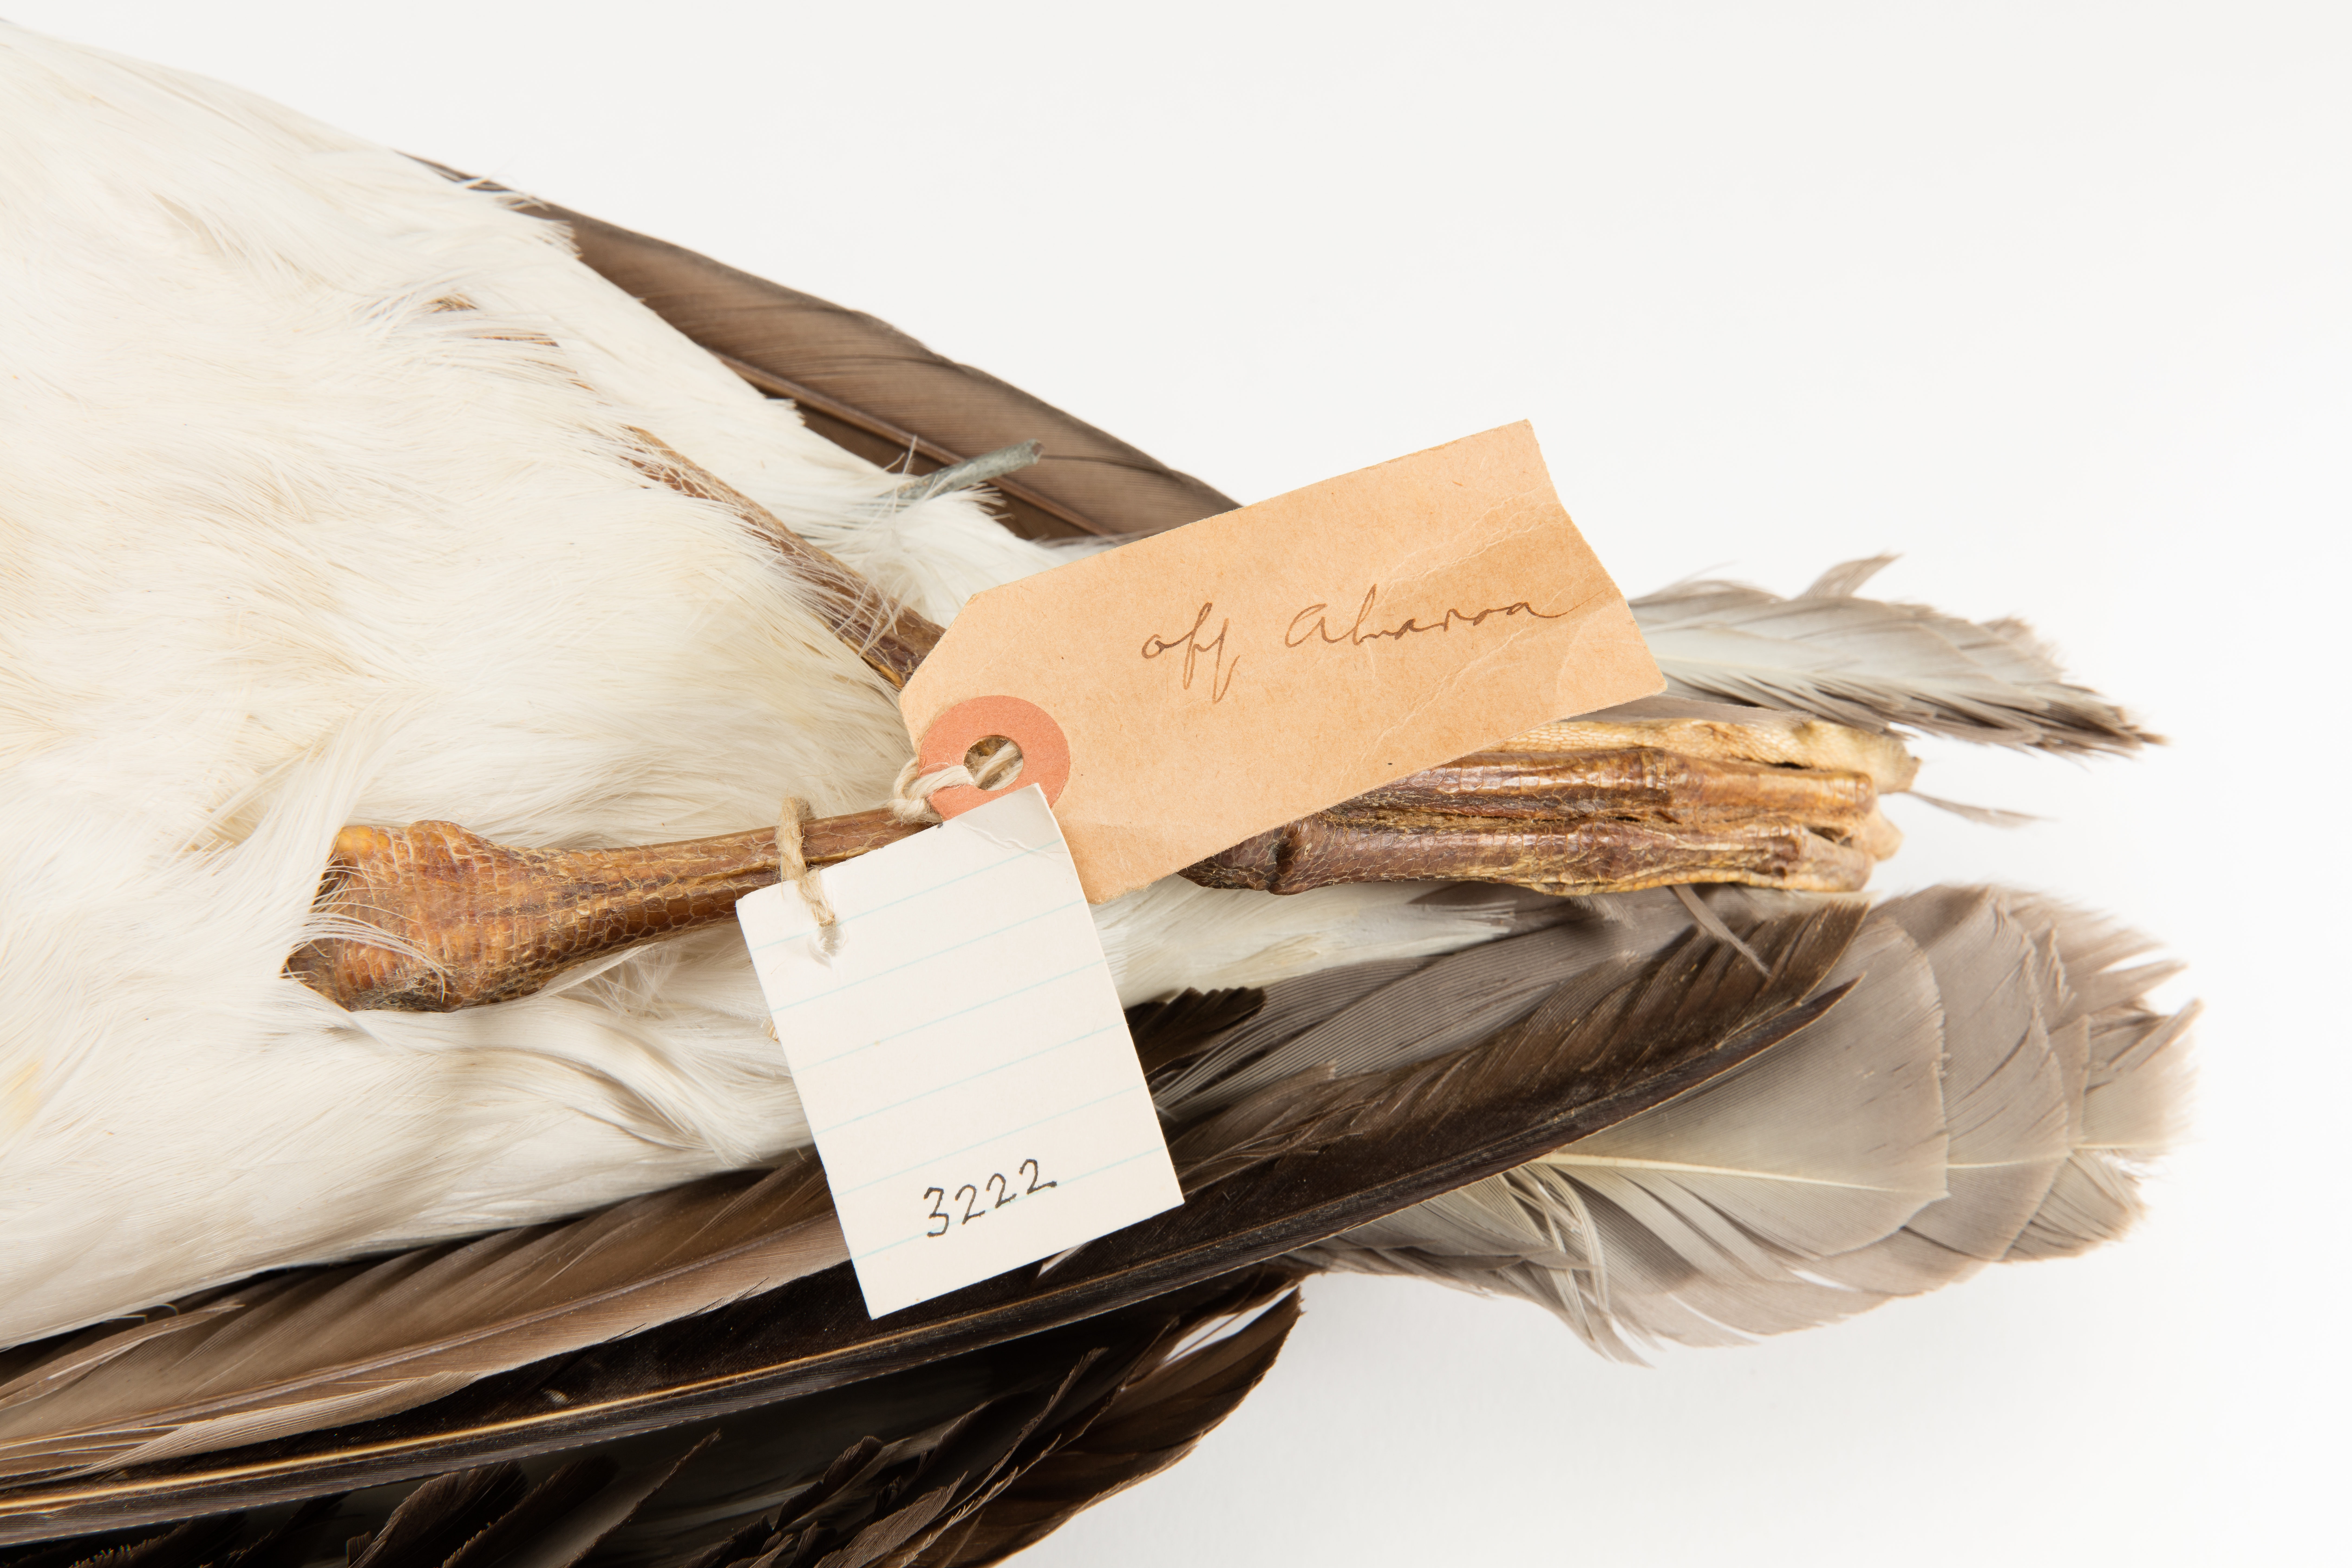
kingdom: Animalia
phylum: Chordata
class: Aves
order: Procellariiformes
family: Diomedeidae
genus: Thalassarche
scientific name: Thalassarche melanophris
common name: Black-browed albatross
